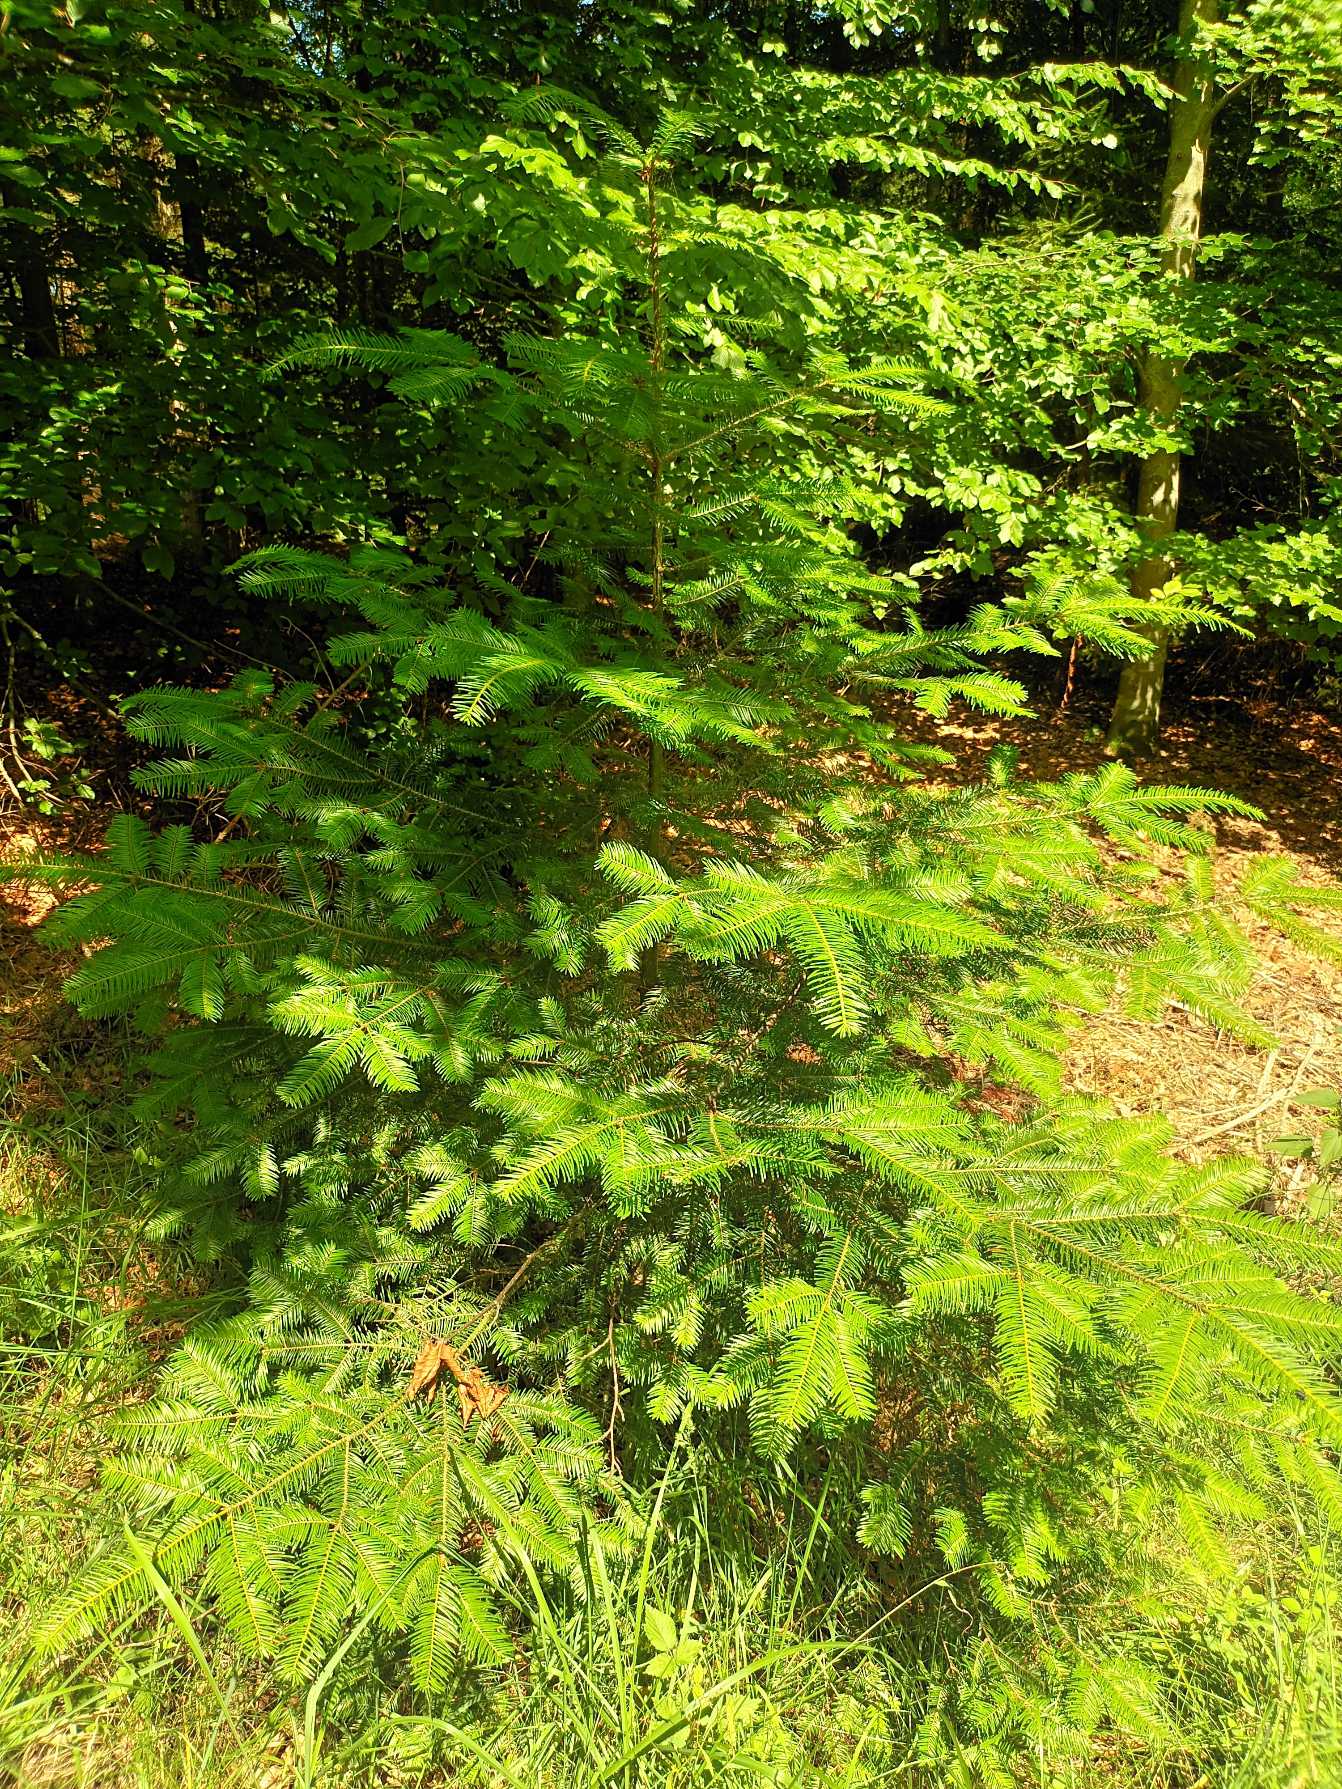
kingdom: Plantae
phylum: Tracheophyta
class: Pinopsida
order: Pinales
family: Pinaceae
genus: Abies
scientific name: Abies grandis
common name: Kæmpegran
